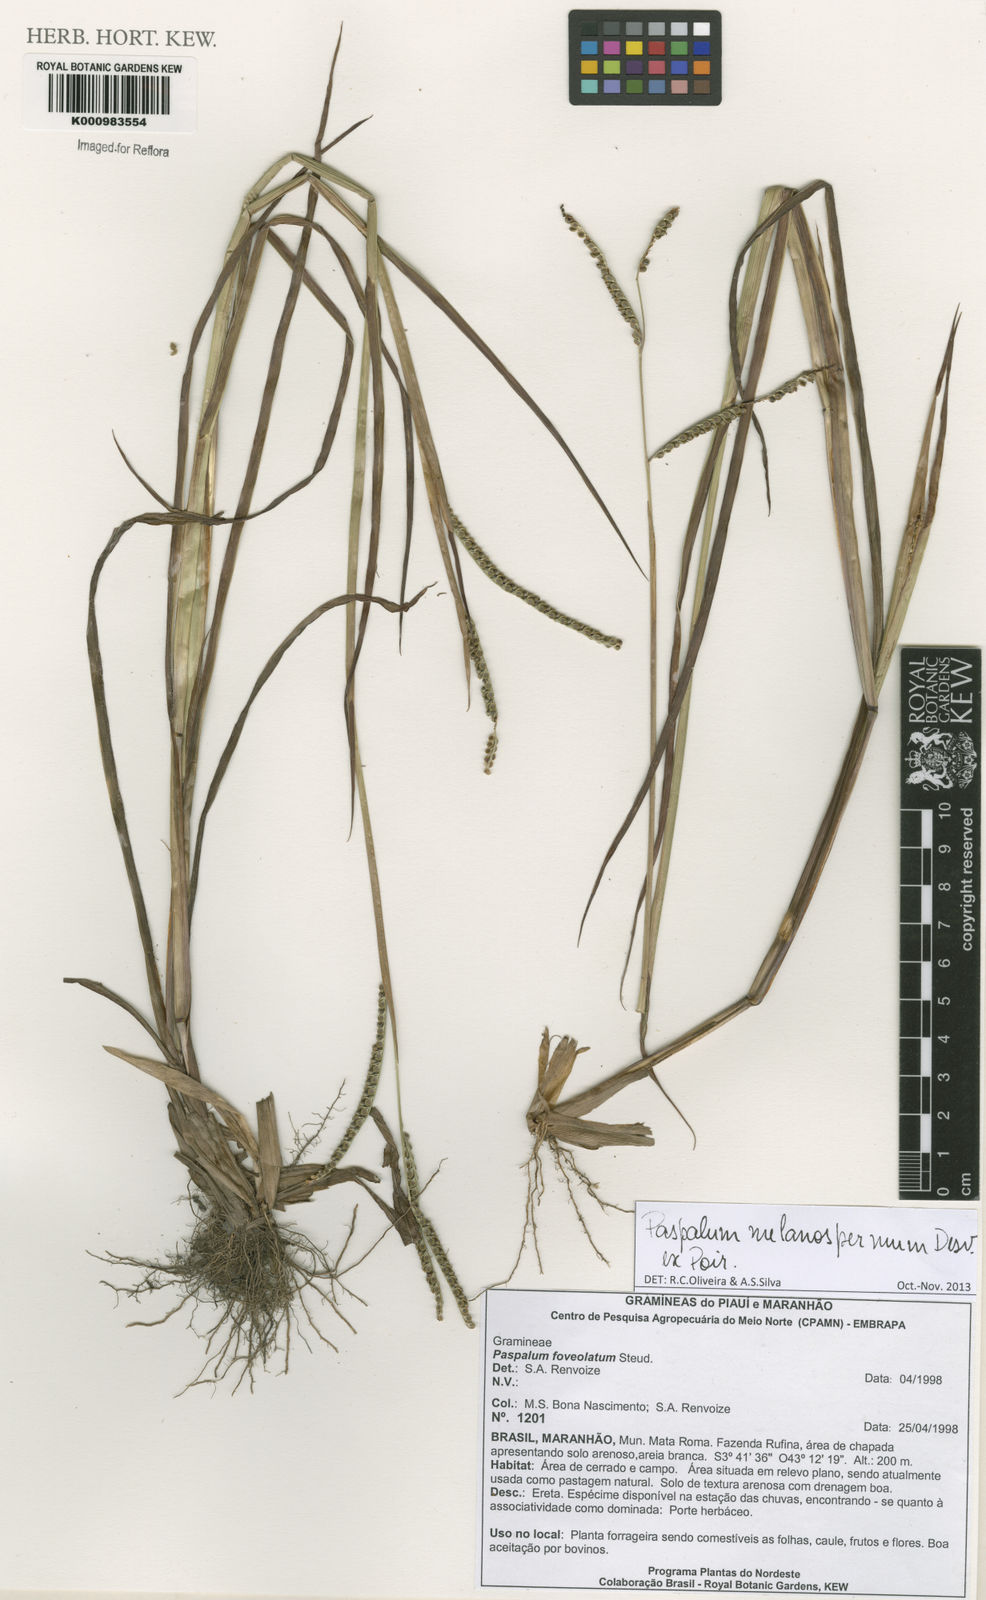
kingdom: Plantae
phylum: Tracheophyta
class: Liliopsida
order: Poales
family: Poaceae
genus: Paspalum
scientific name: Paspalum melanospermum
